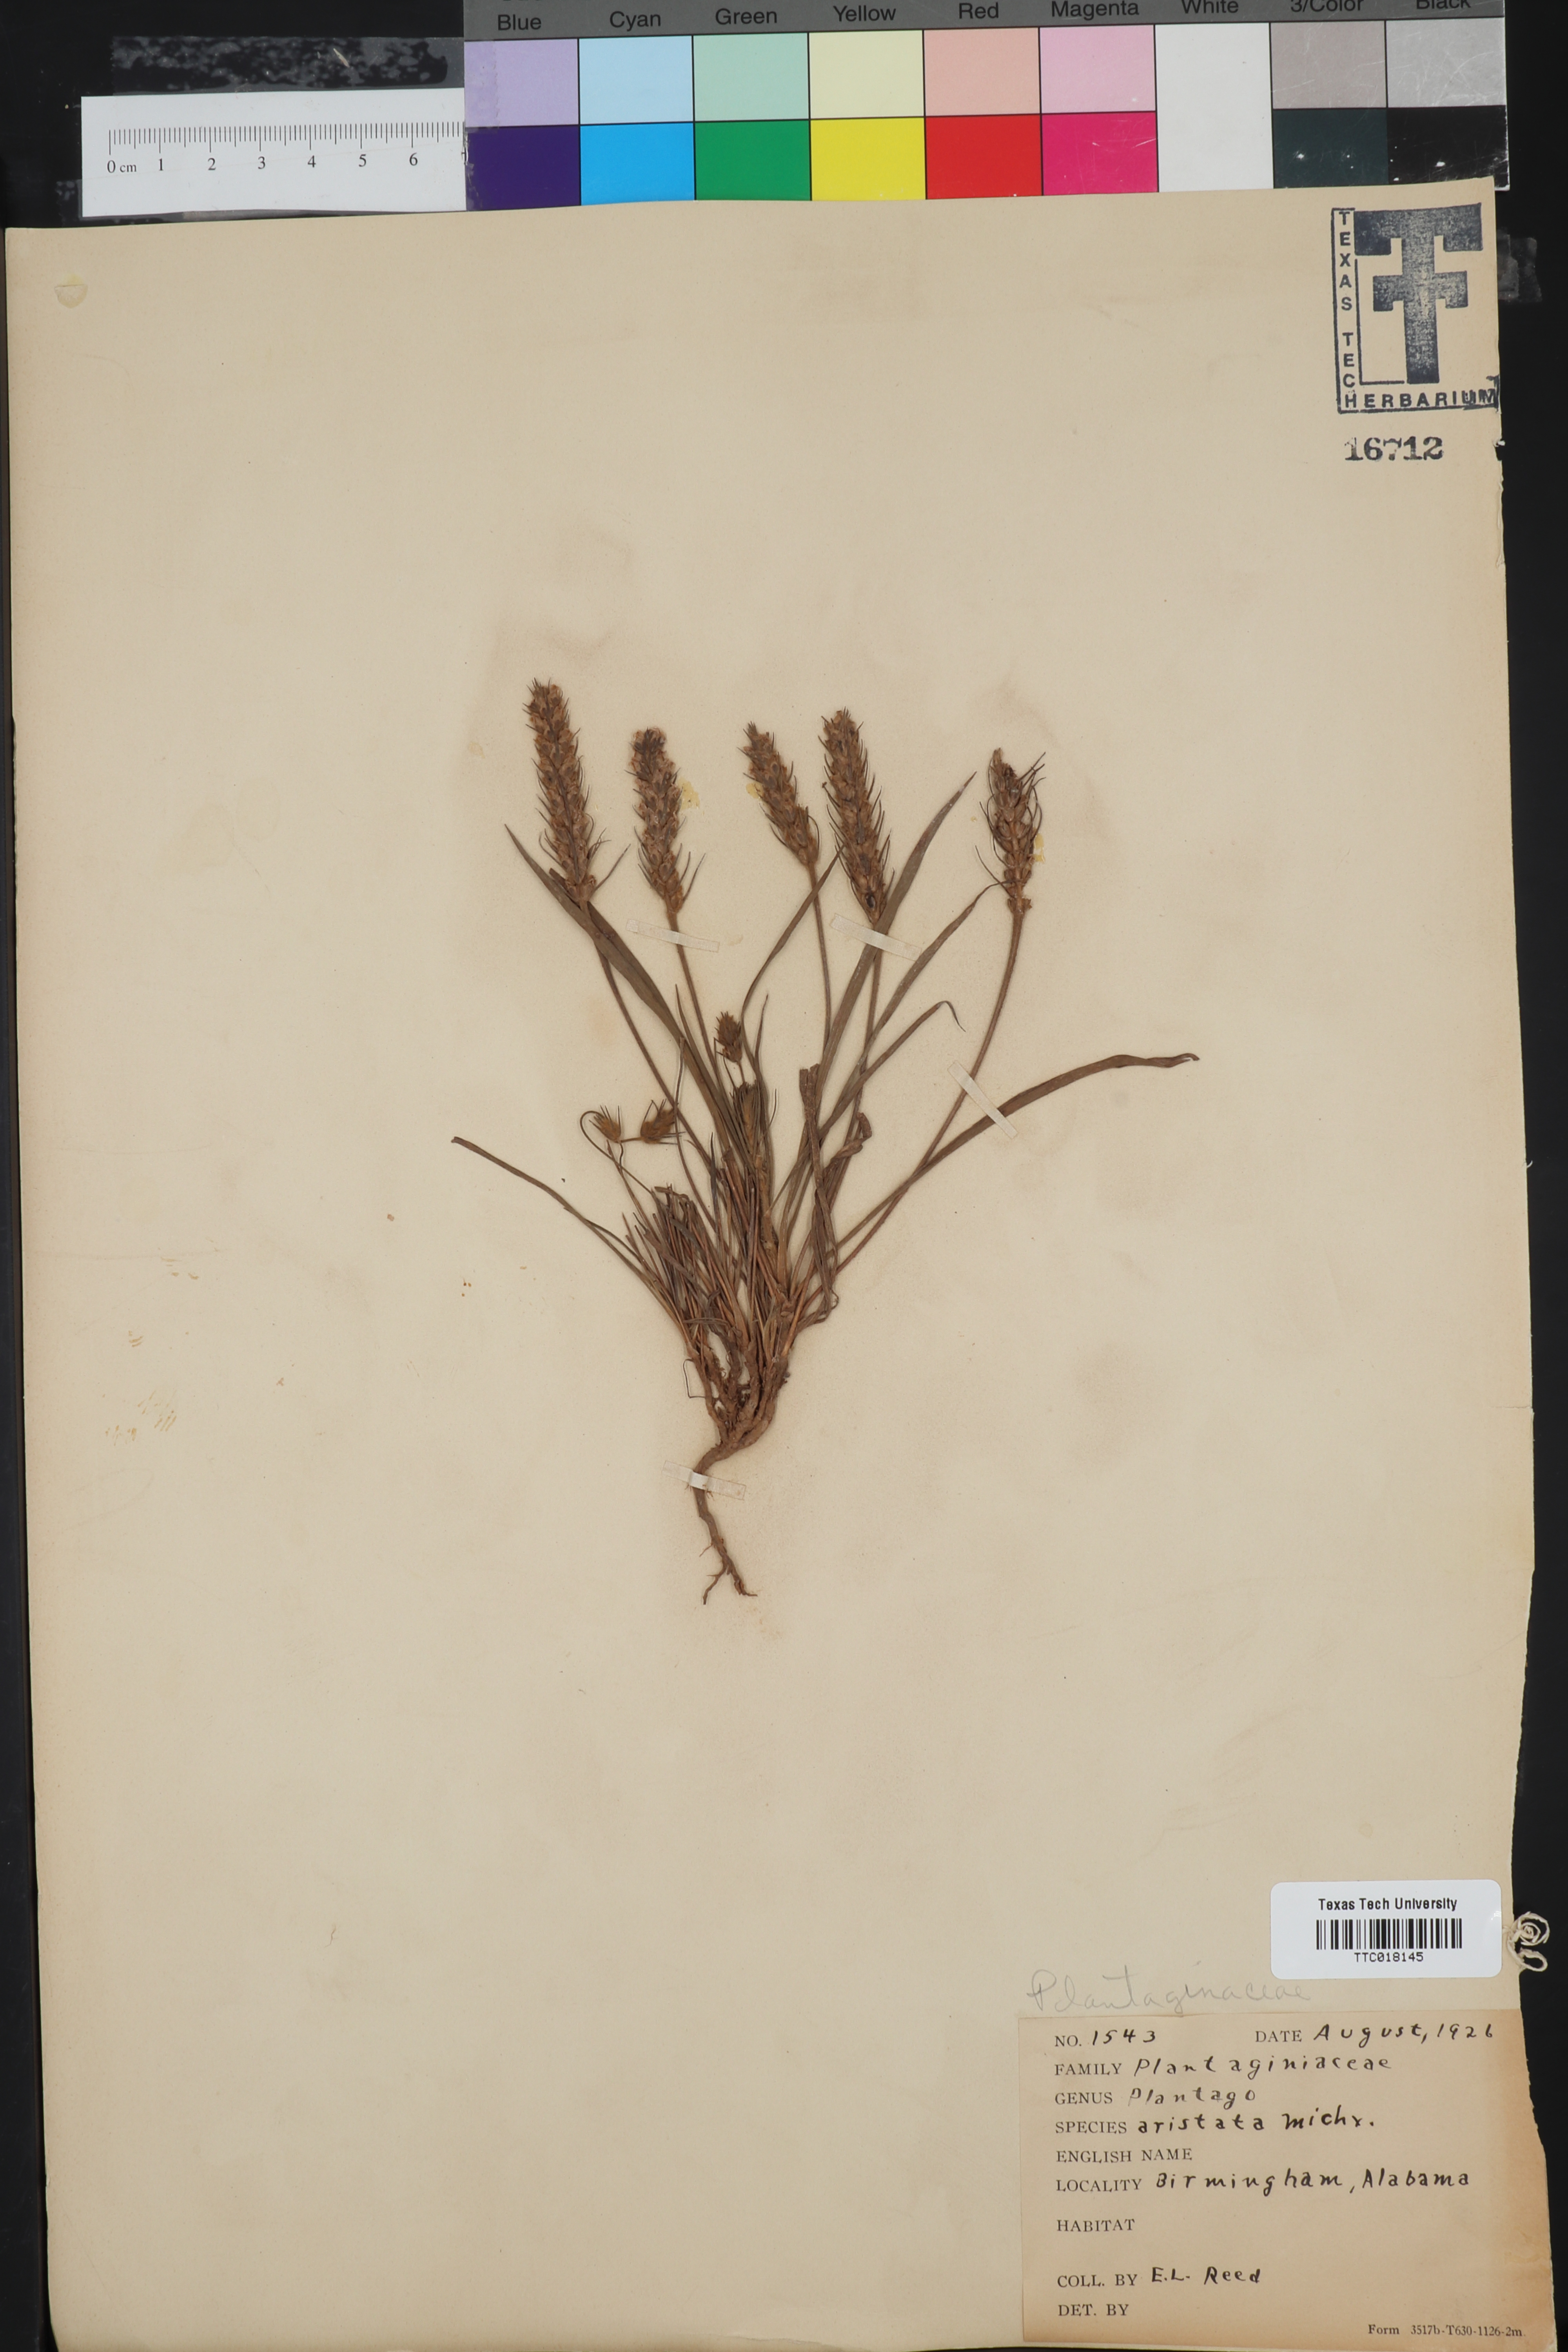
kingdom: Plantae
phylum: Tracheophyta
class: Magnoliopsida
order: Lamiales
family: Plantaginaceae
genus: Plantago
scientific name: Plantago aristata
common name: Bracted plantain
